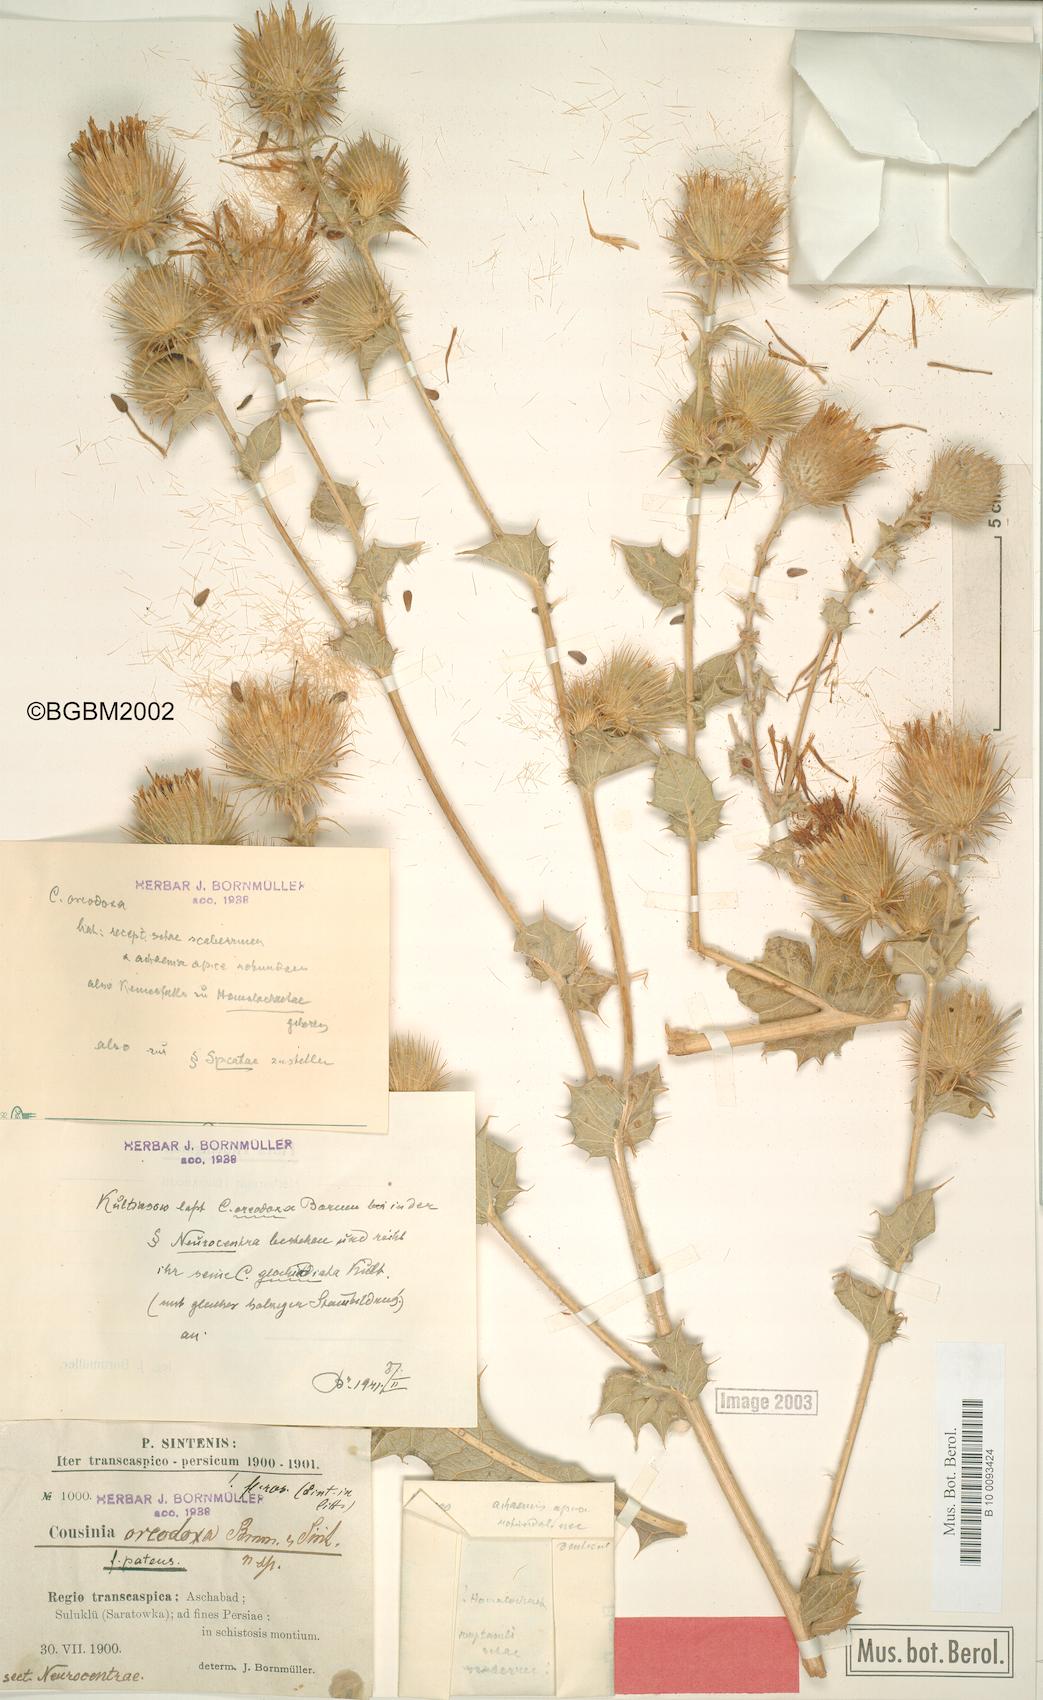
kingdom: Plantae
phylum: Tracheophyta
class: Magnoliopsida
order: Asterales
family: Asteraceae
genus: Cousinia
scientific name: Cousinia oreodoxa
